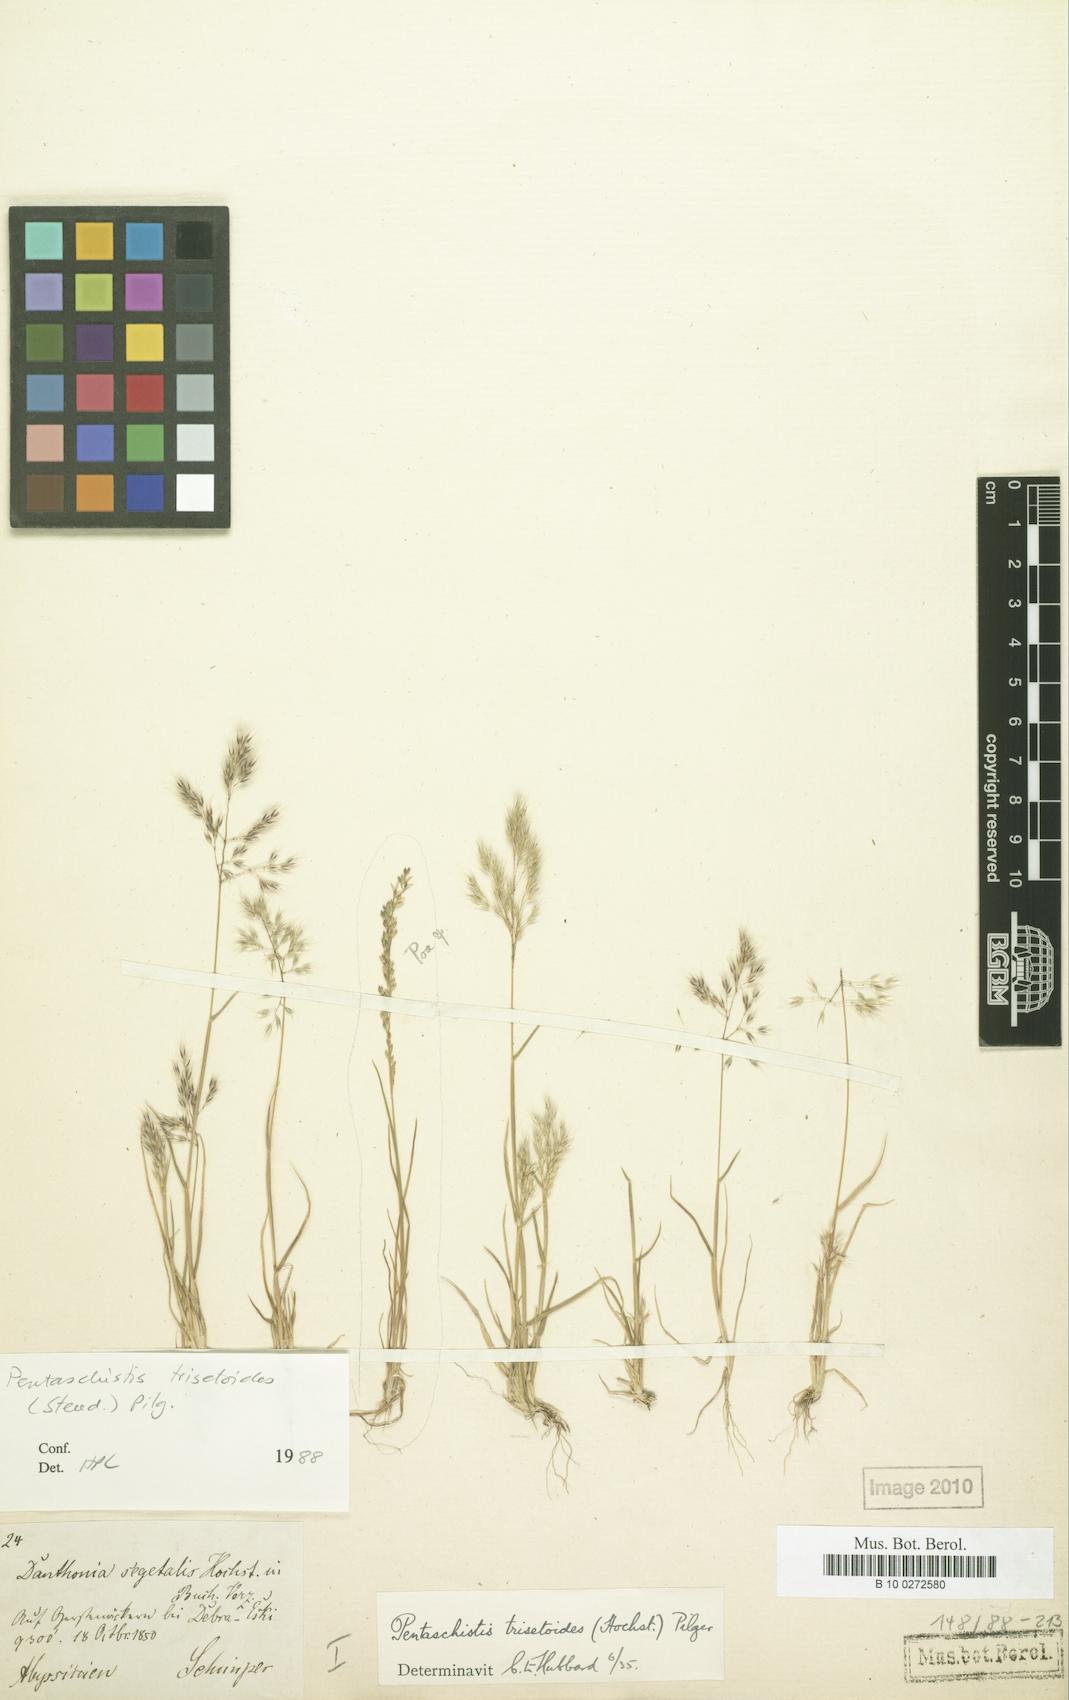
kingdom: Plantae
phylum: Tracheophyta
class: Liliopsida
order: Poales
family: Poaceae
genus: Pentameris
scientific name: Pentameris trisetoides
